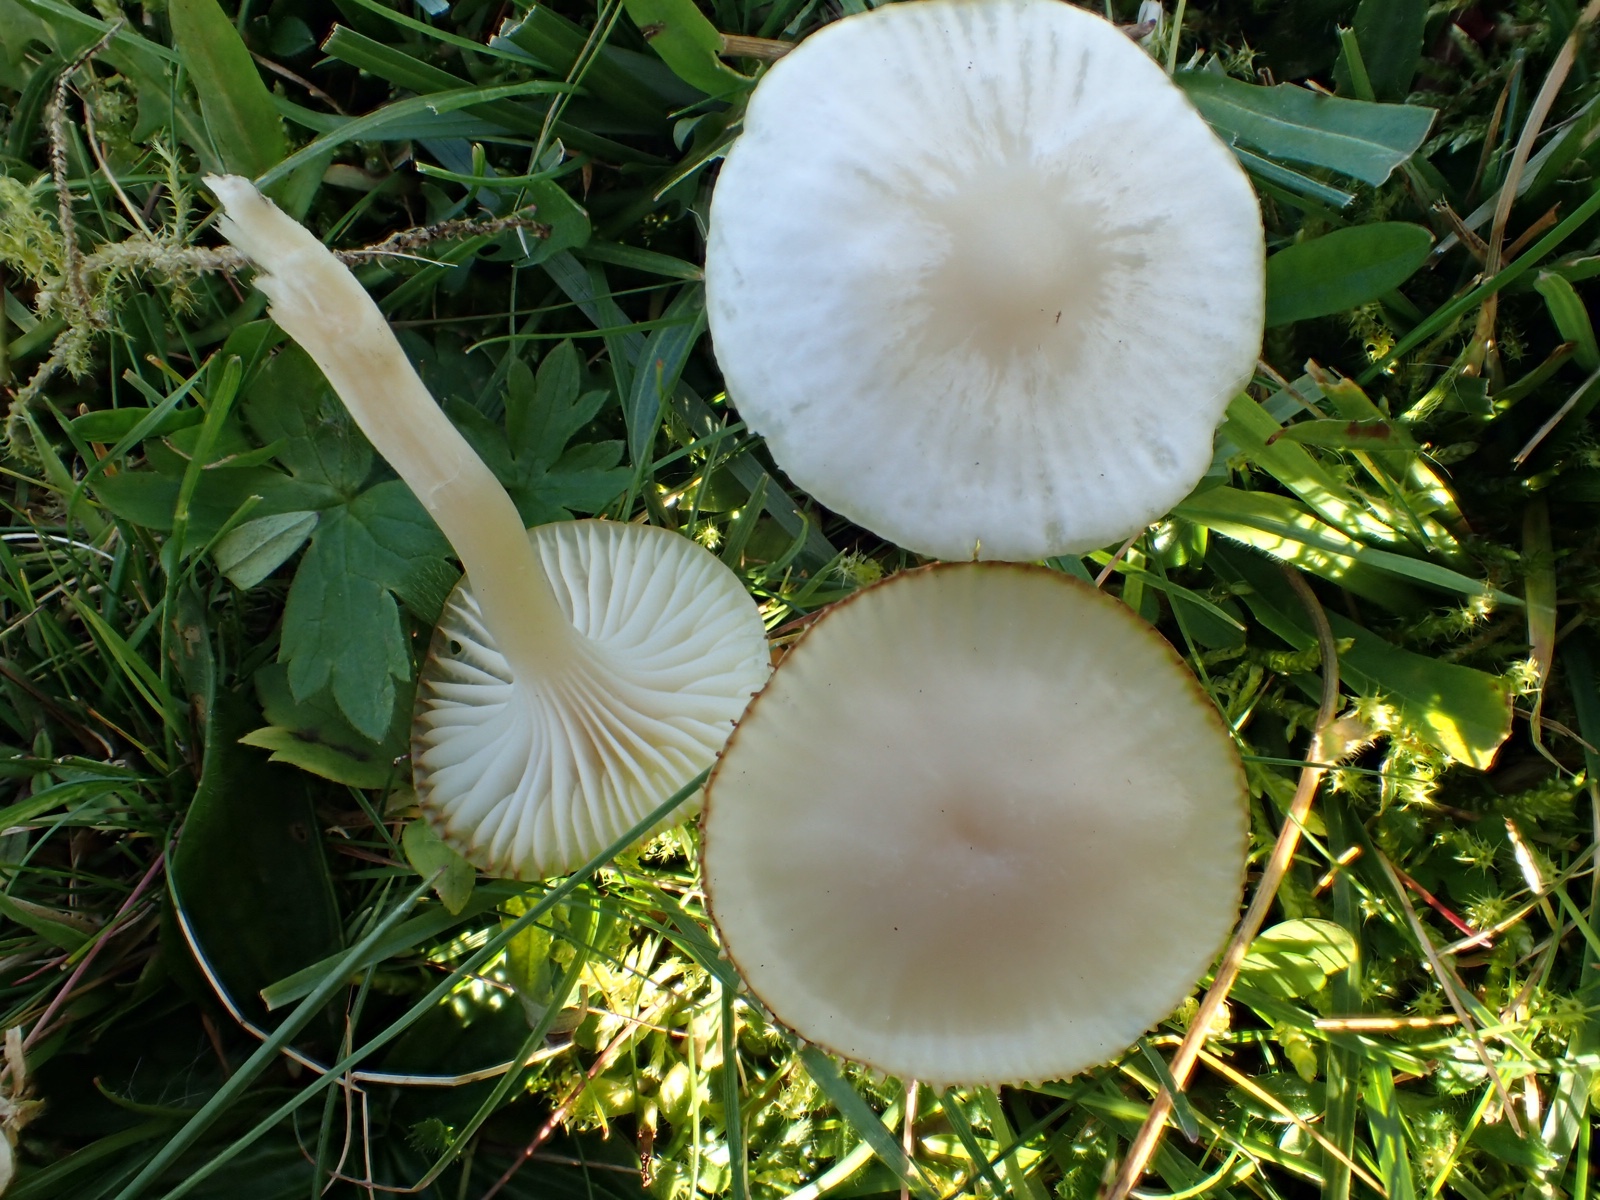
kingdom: Fungi
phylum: Basidiomycota
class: Agaricomycetes
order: Agaricales
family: Hygrophoraceae
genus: Cuphophyllus
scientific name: Cuphophyllus
